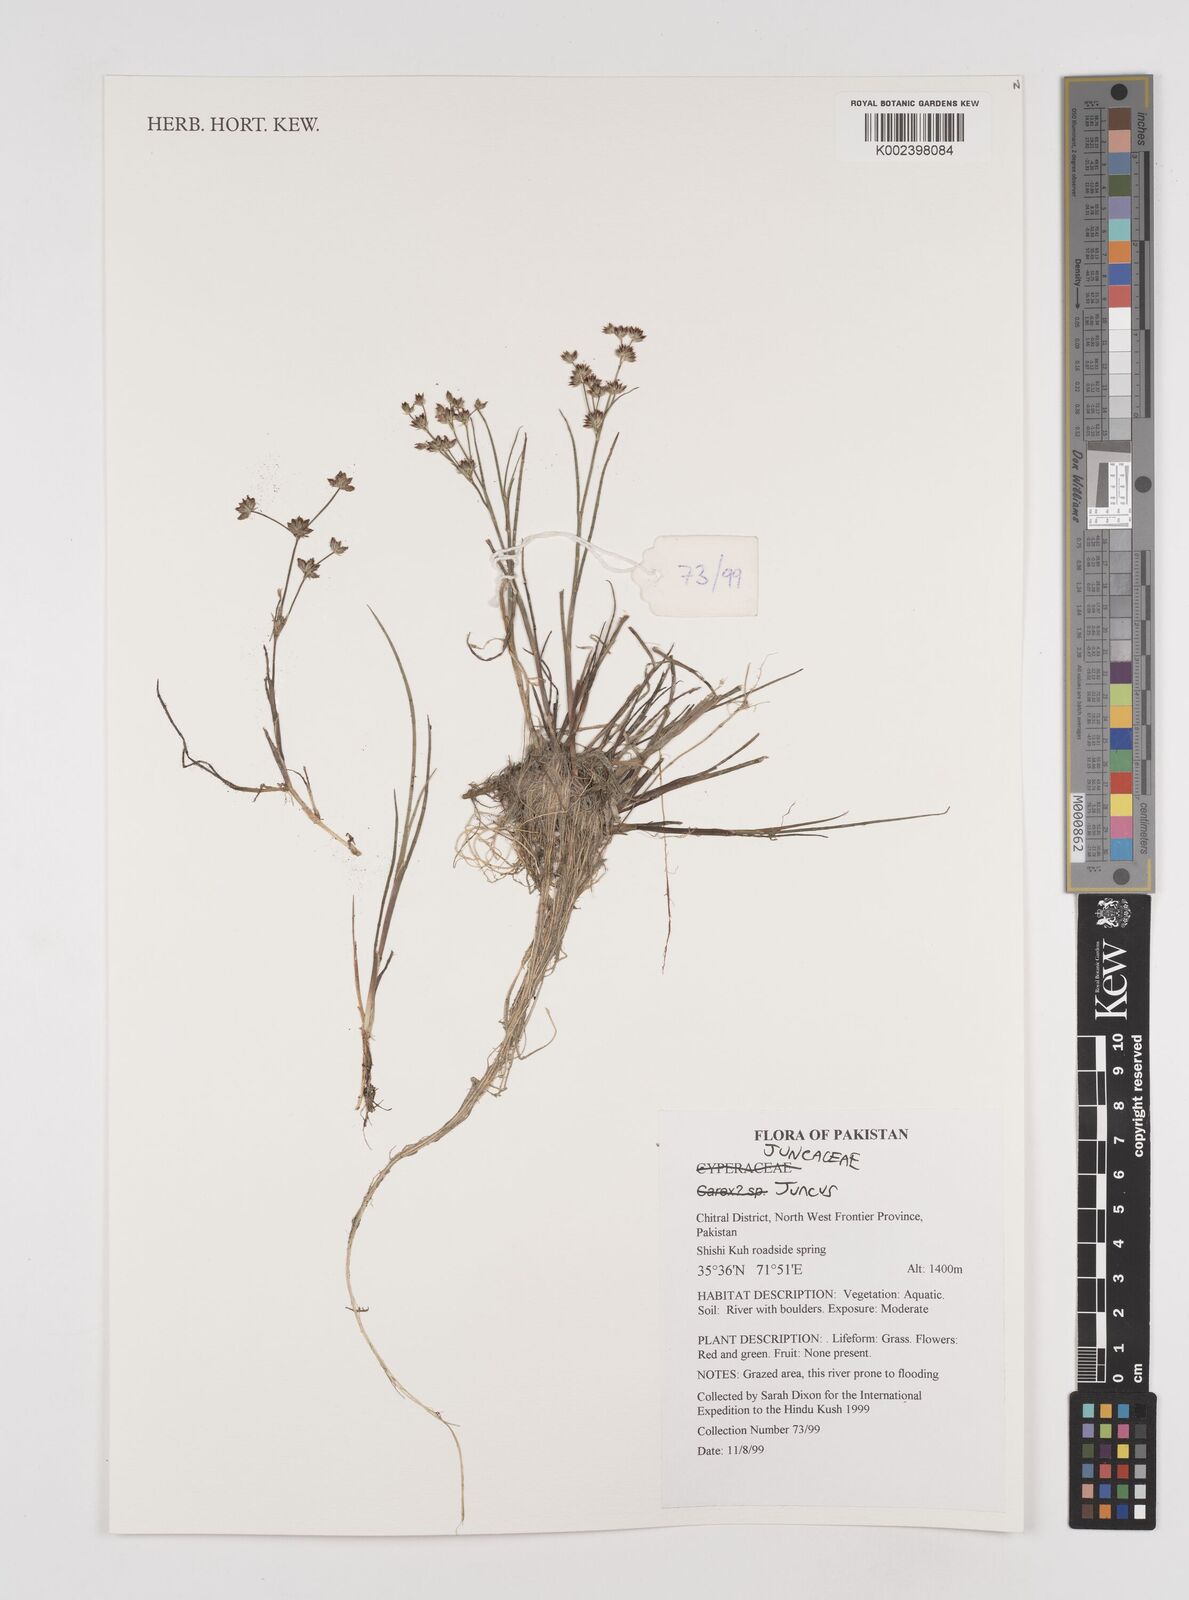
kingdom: Plantae
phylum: Tracheophyta
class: Liliopsida
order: Poales
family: Juncaceae
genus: Juncus
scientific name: Juncus
